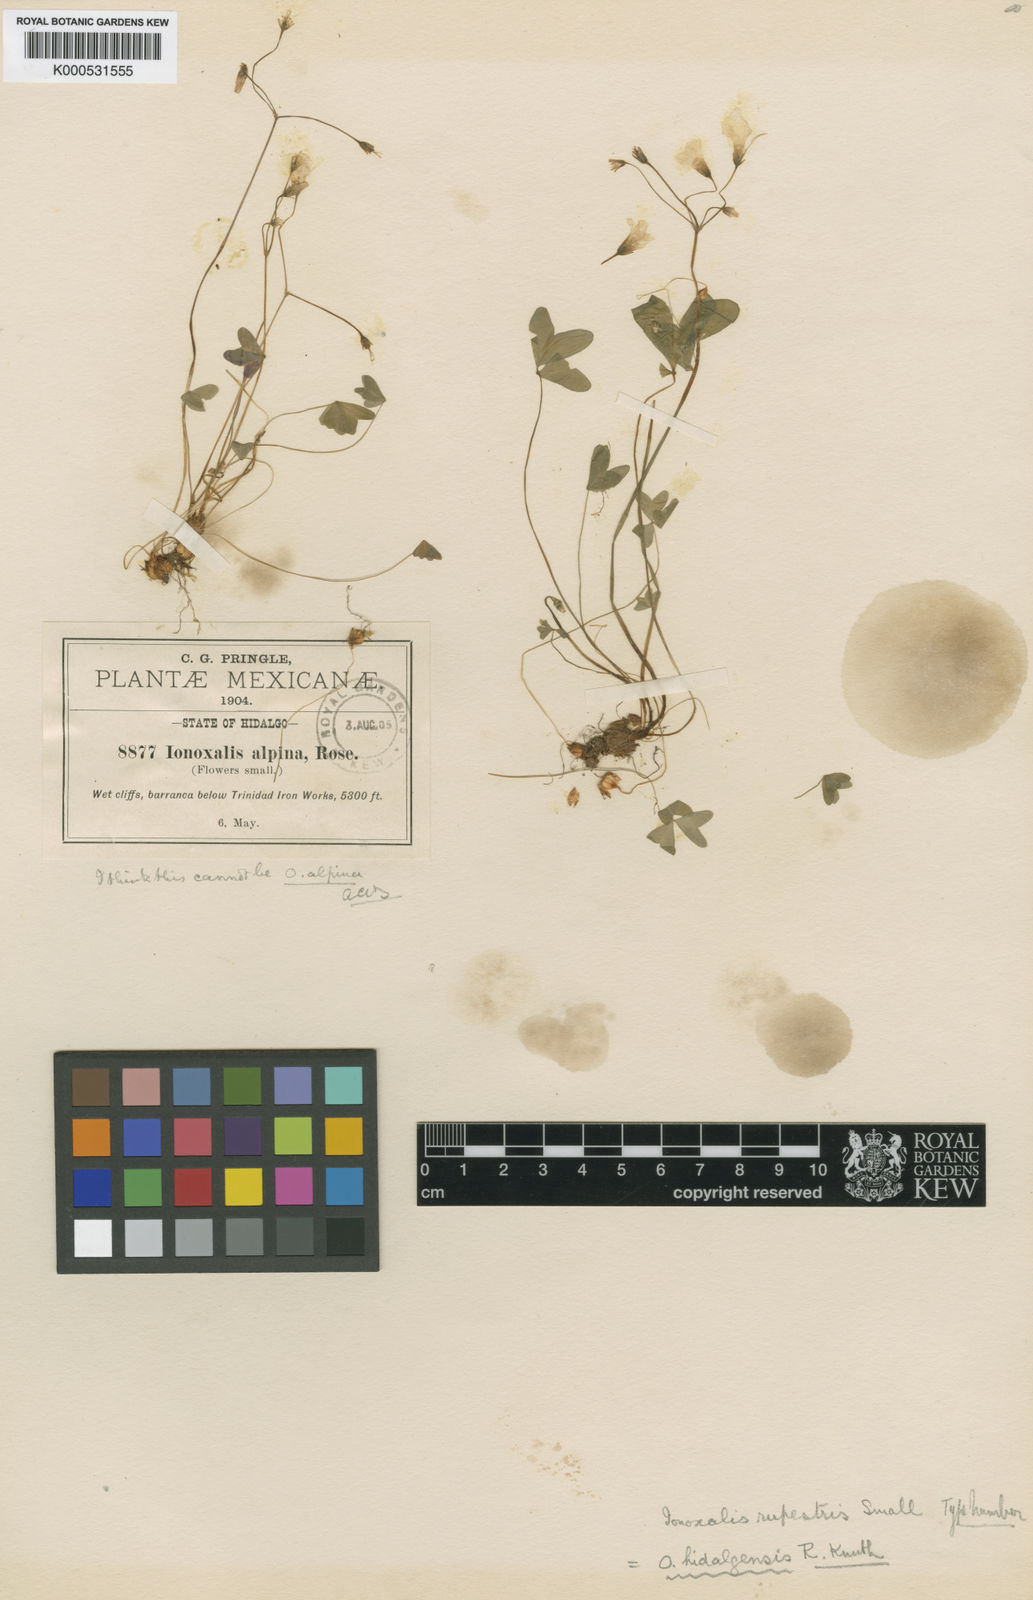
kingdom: Plantae
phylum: Tracheophyta
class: Magnoliopsida
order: Oxalidales
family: Oxalidaceae
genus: Oxalis
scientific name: Oxalis alpina
